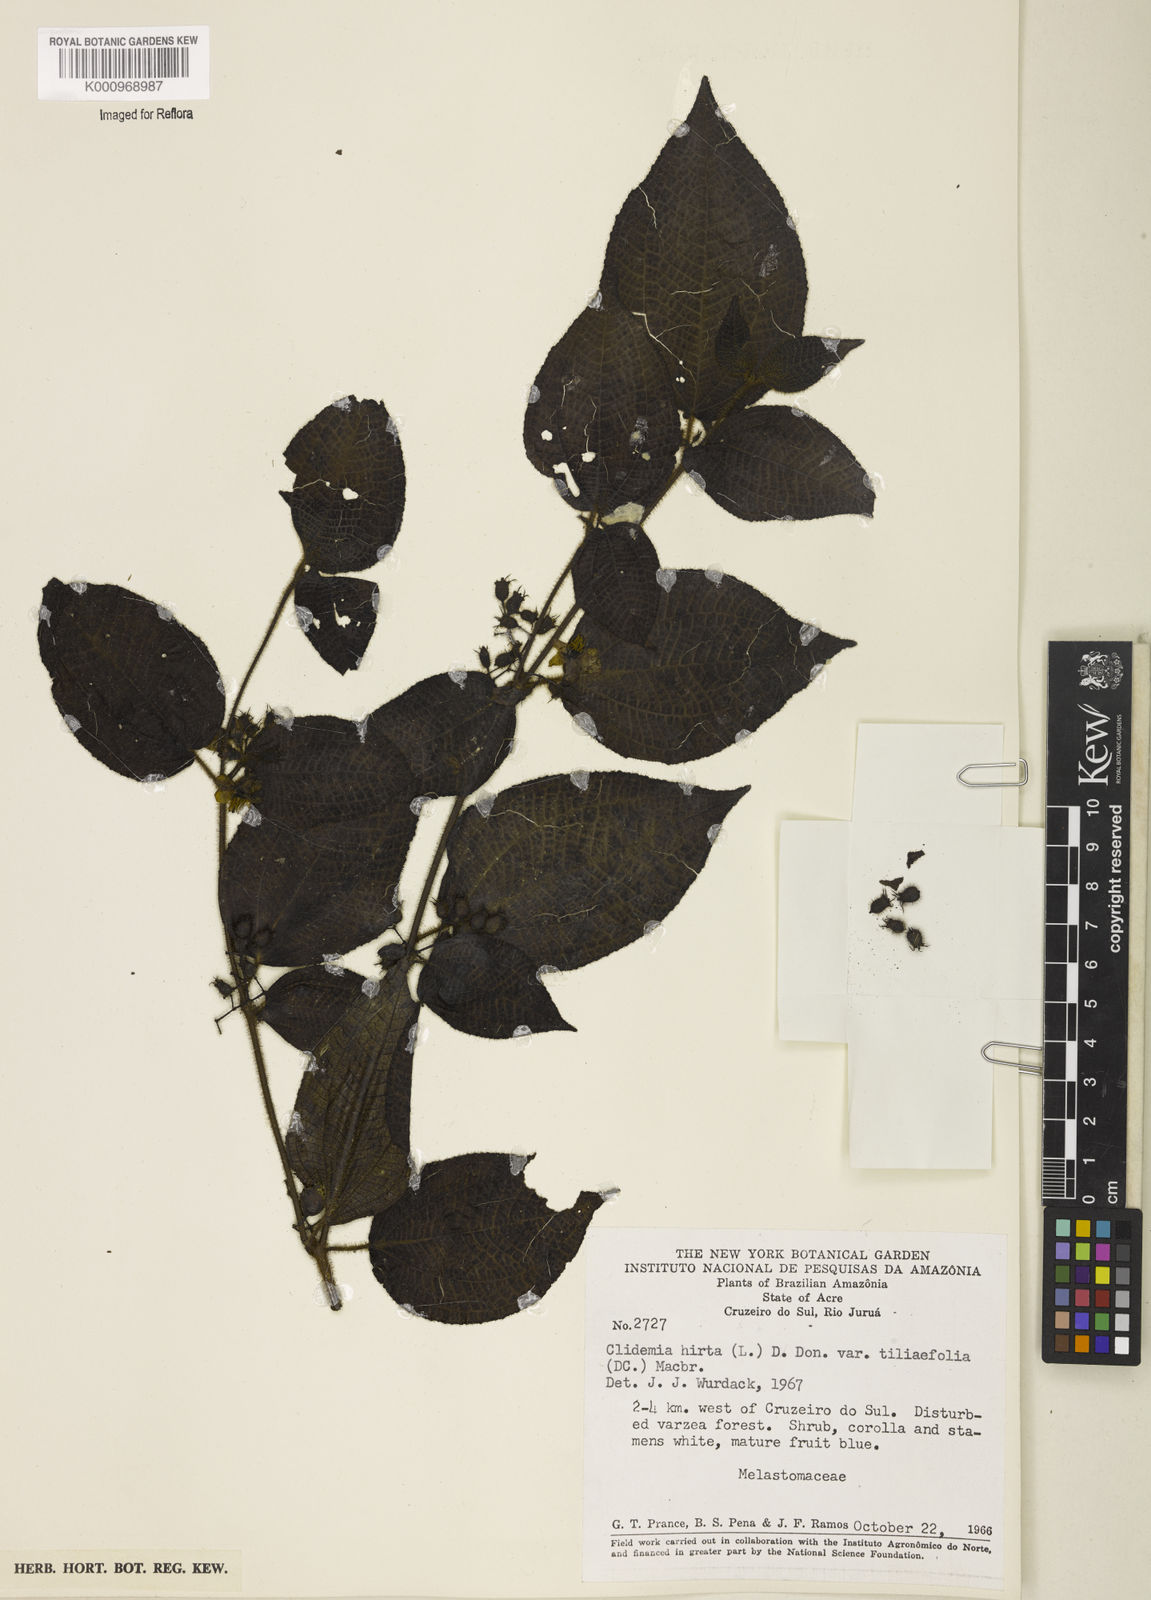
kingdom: Plantae
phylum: Tracheophyta
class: Magnoliopsida
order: Myrtales
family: Melastomataceae
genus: Miconia
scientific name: Miconia crenata
